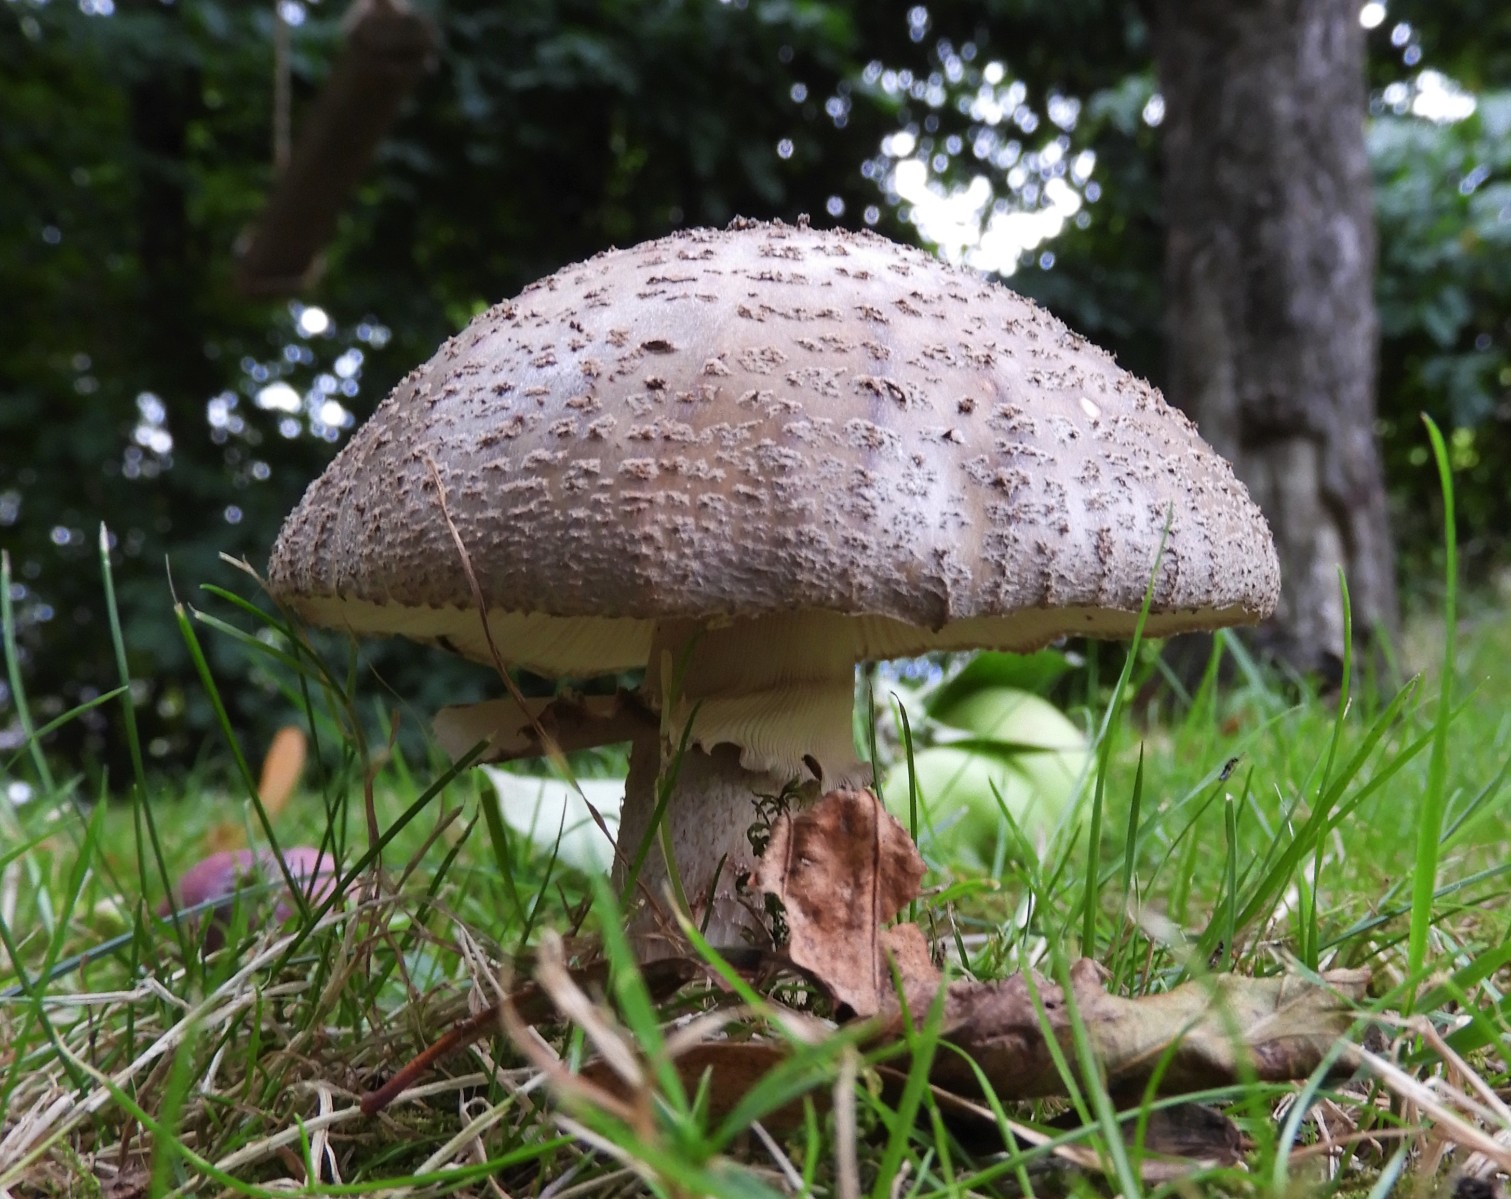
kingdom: Fungi
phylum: Basidiomycota
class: Agaricomycetes
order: Agaricales
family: Amanitaceae
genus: Amanita
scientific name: Amanita rubescens
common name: rødmende fluesvamp
